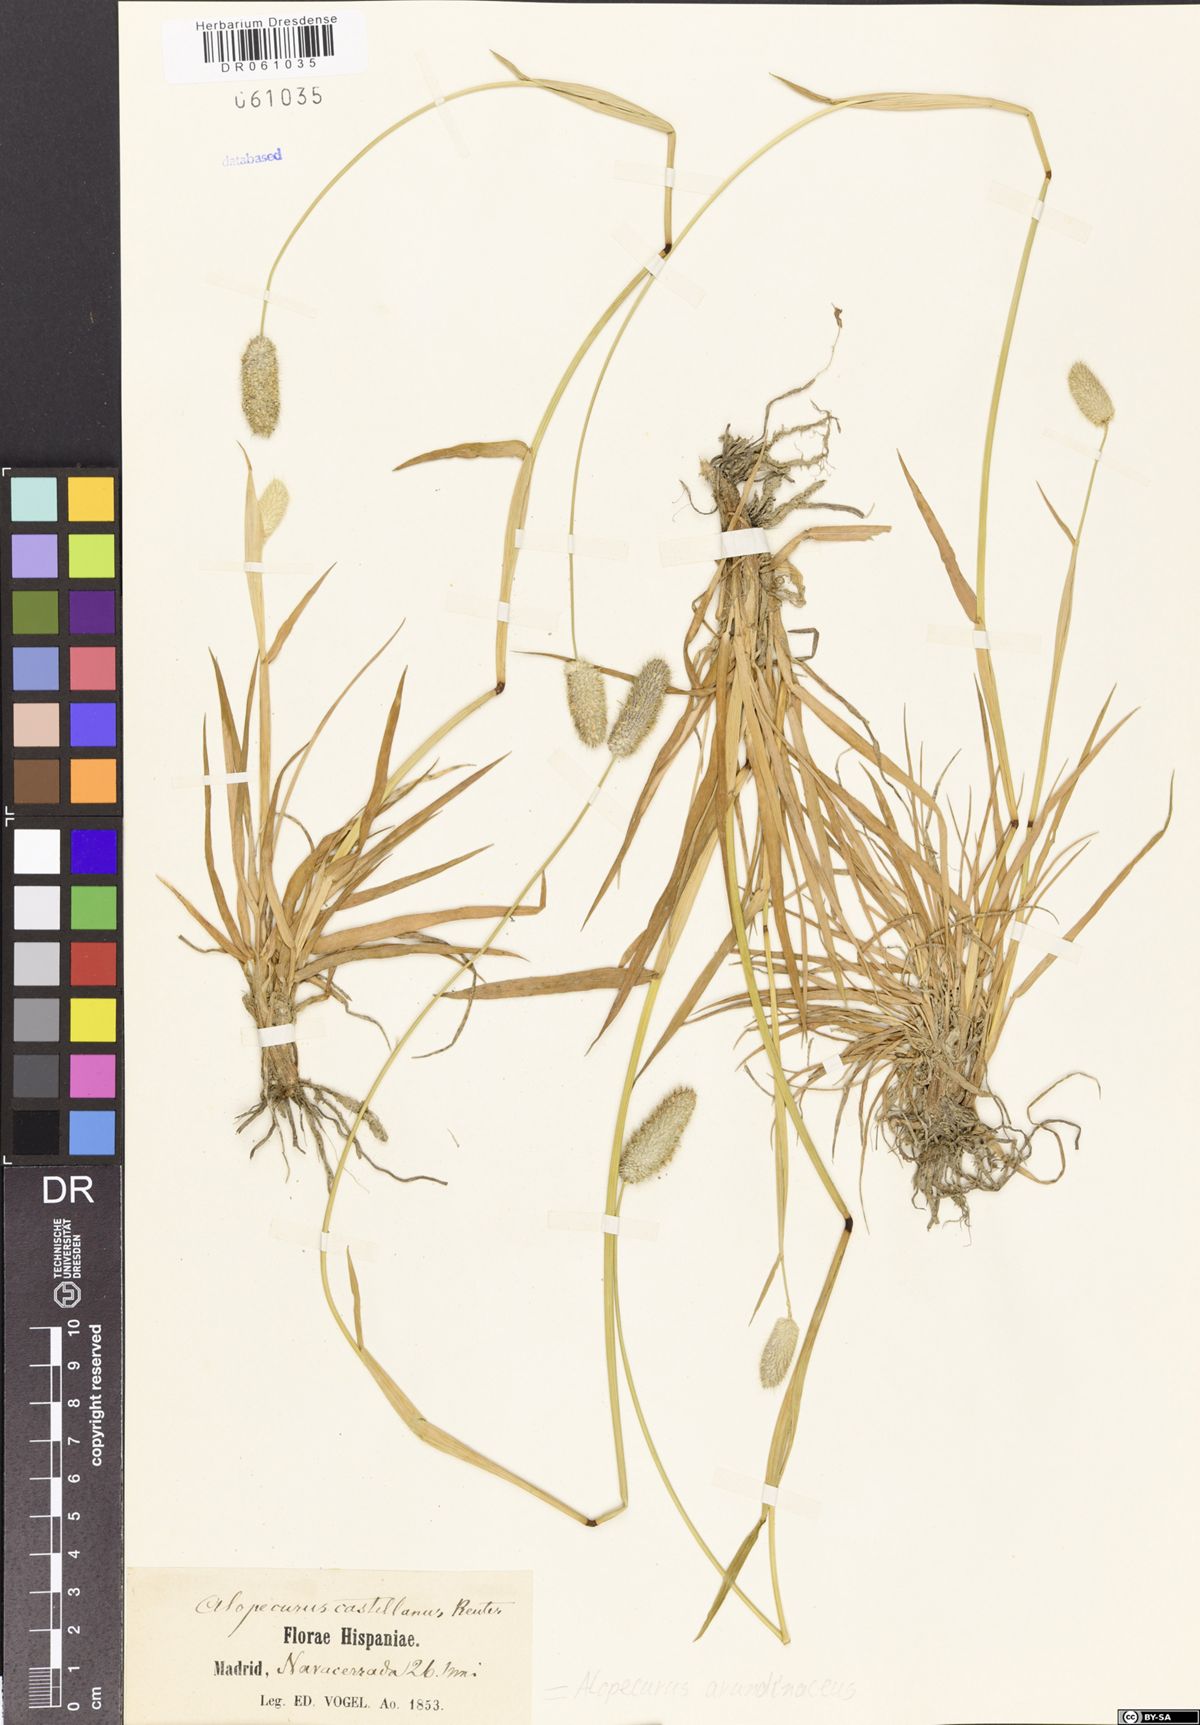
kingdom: Plantae
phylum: Tracheophyta
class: Liliopsida
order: Poales
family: Poaceae
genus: Alopecurus
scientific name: Alopecurus arundinaceus
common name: Creeping meadow foxtail
